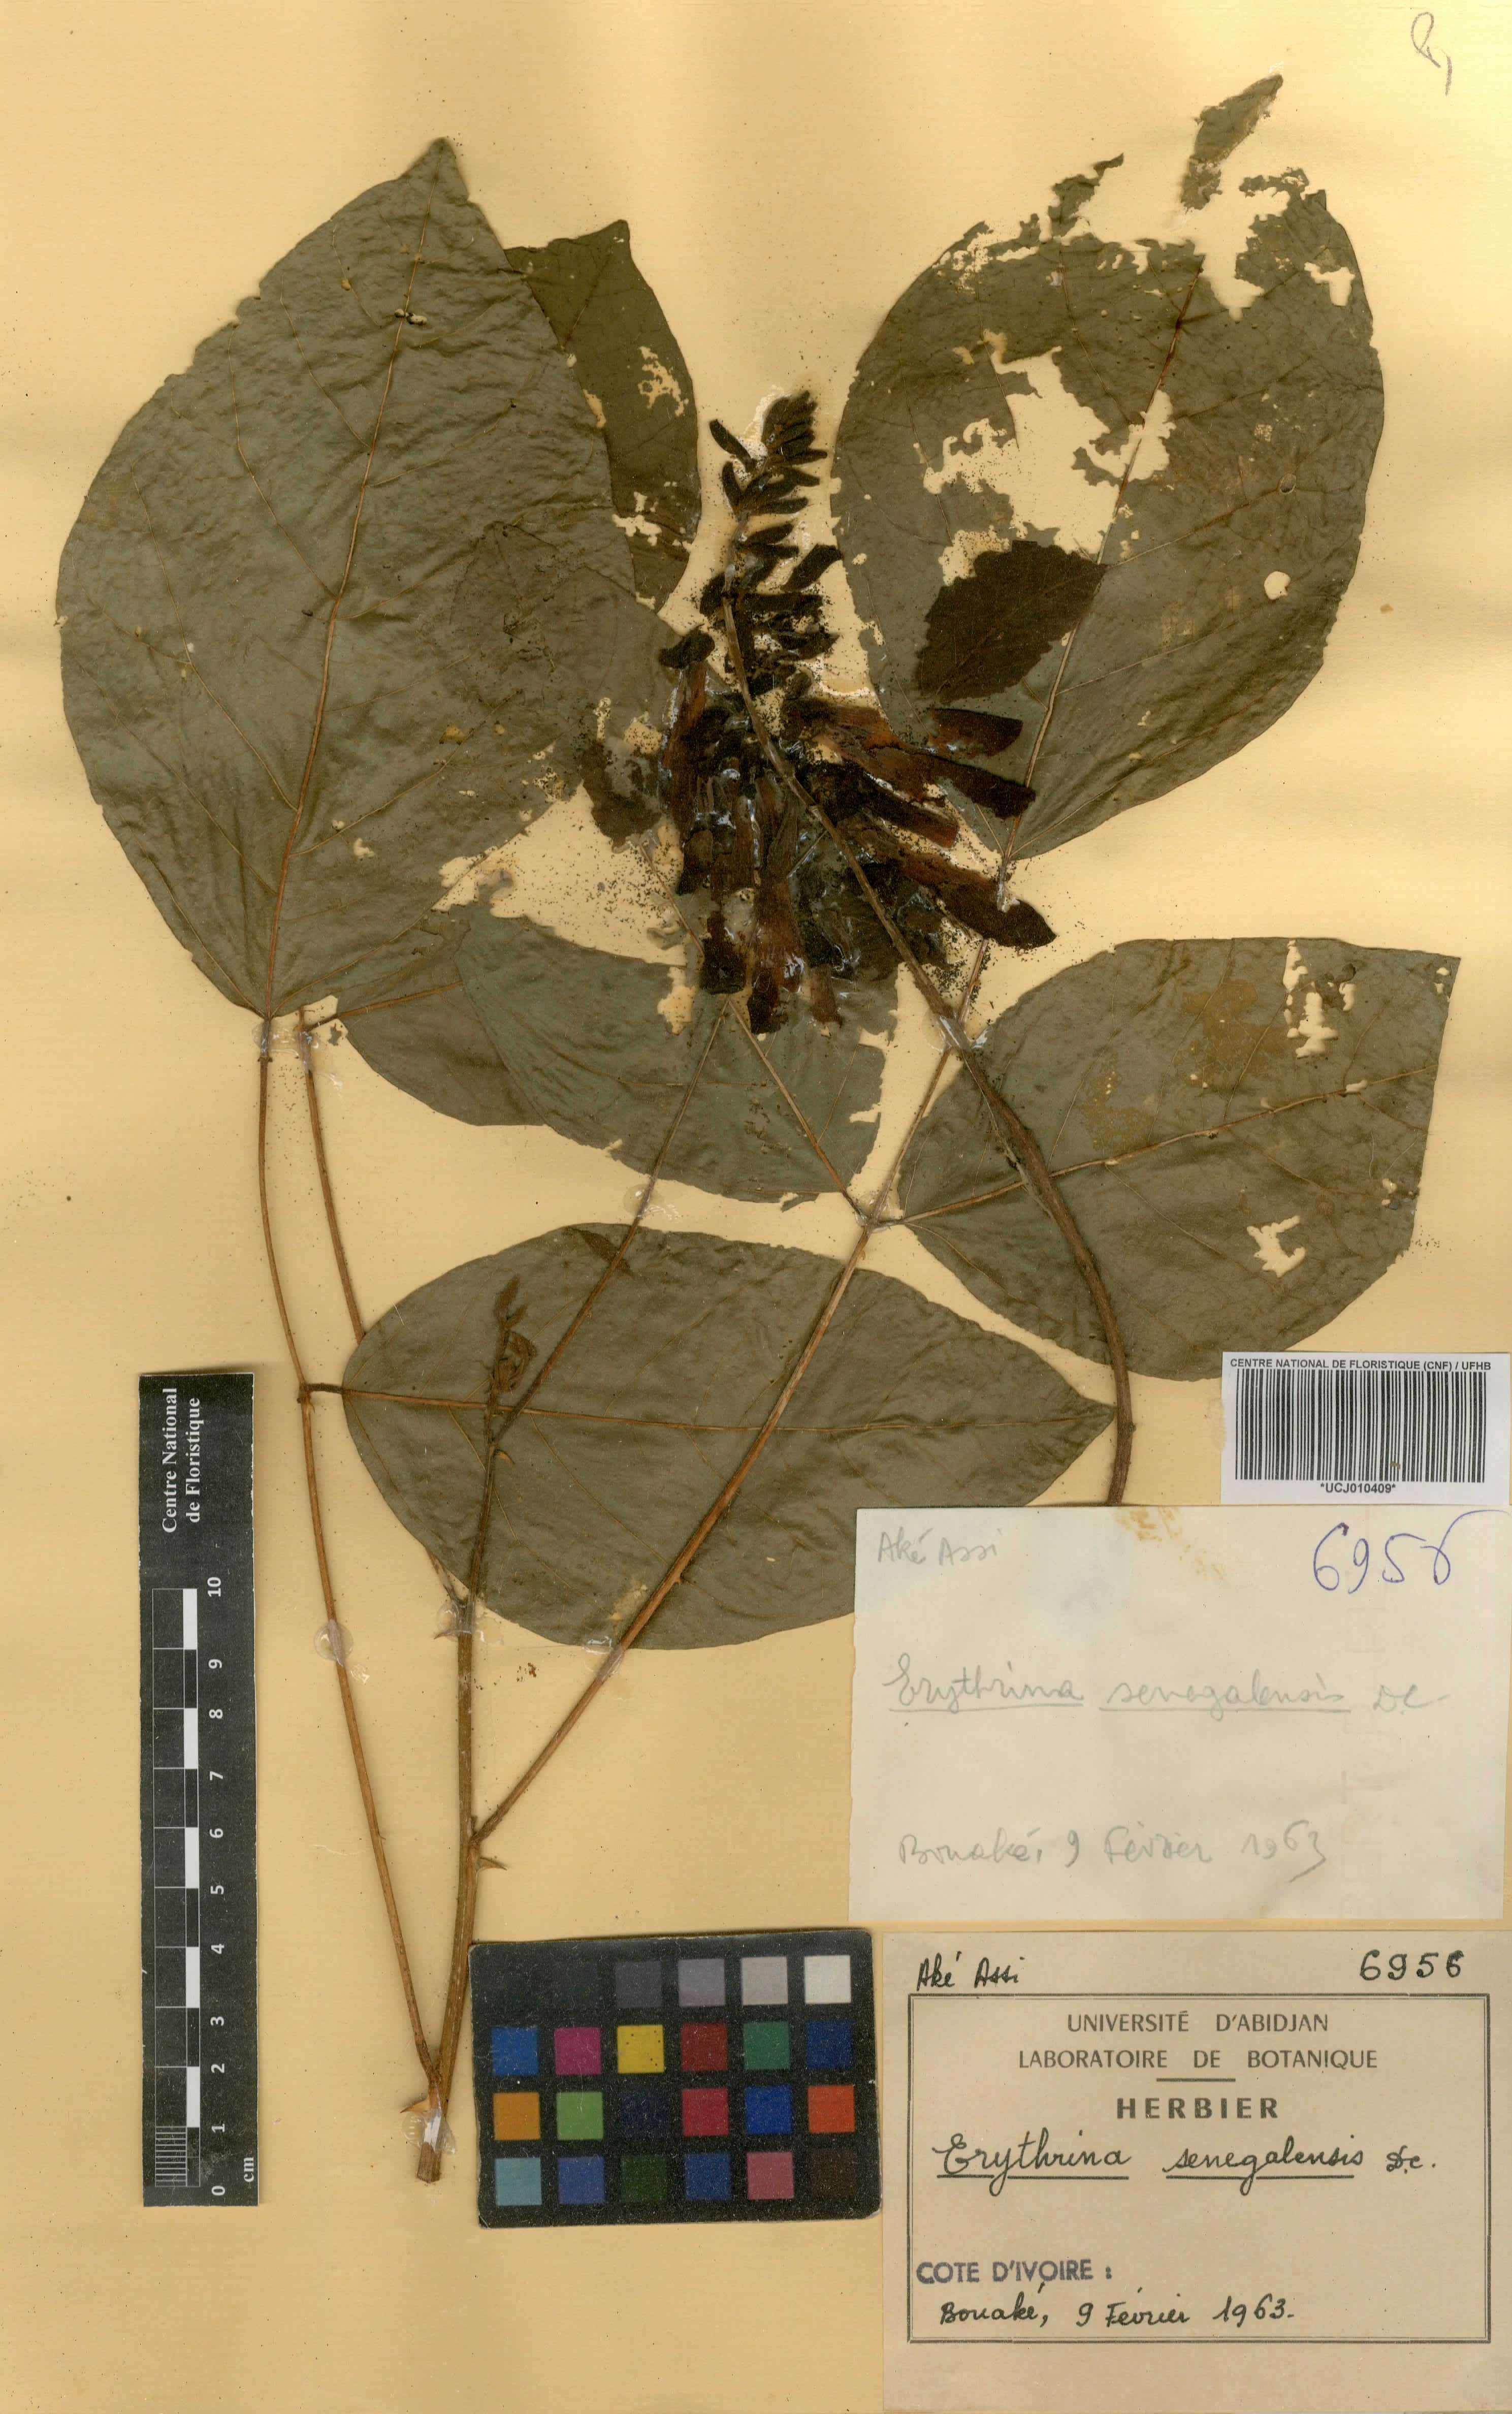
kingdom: Plantae
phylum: Tracheophyta
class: Magnoliopsida
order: Fabales
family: Fabaceae
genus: Erythrina
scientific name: Erythrina senegalensis
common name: Senegal coraltree
